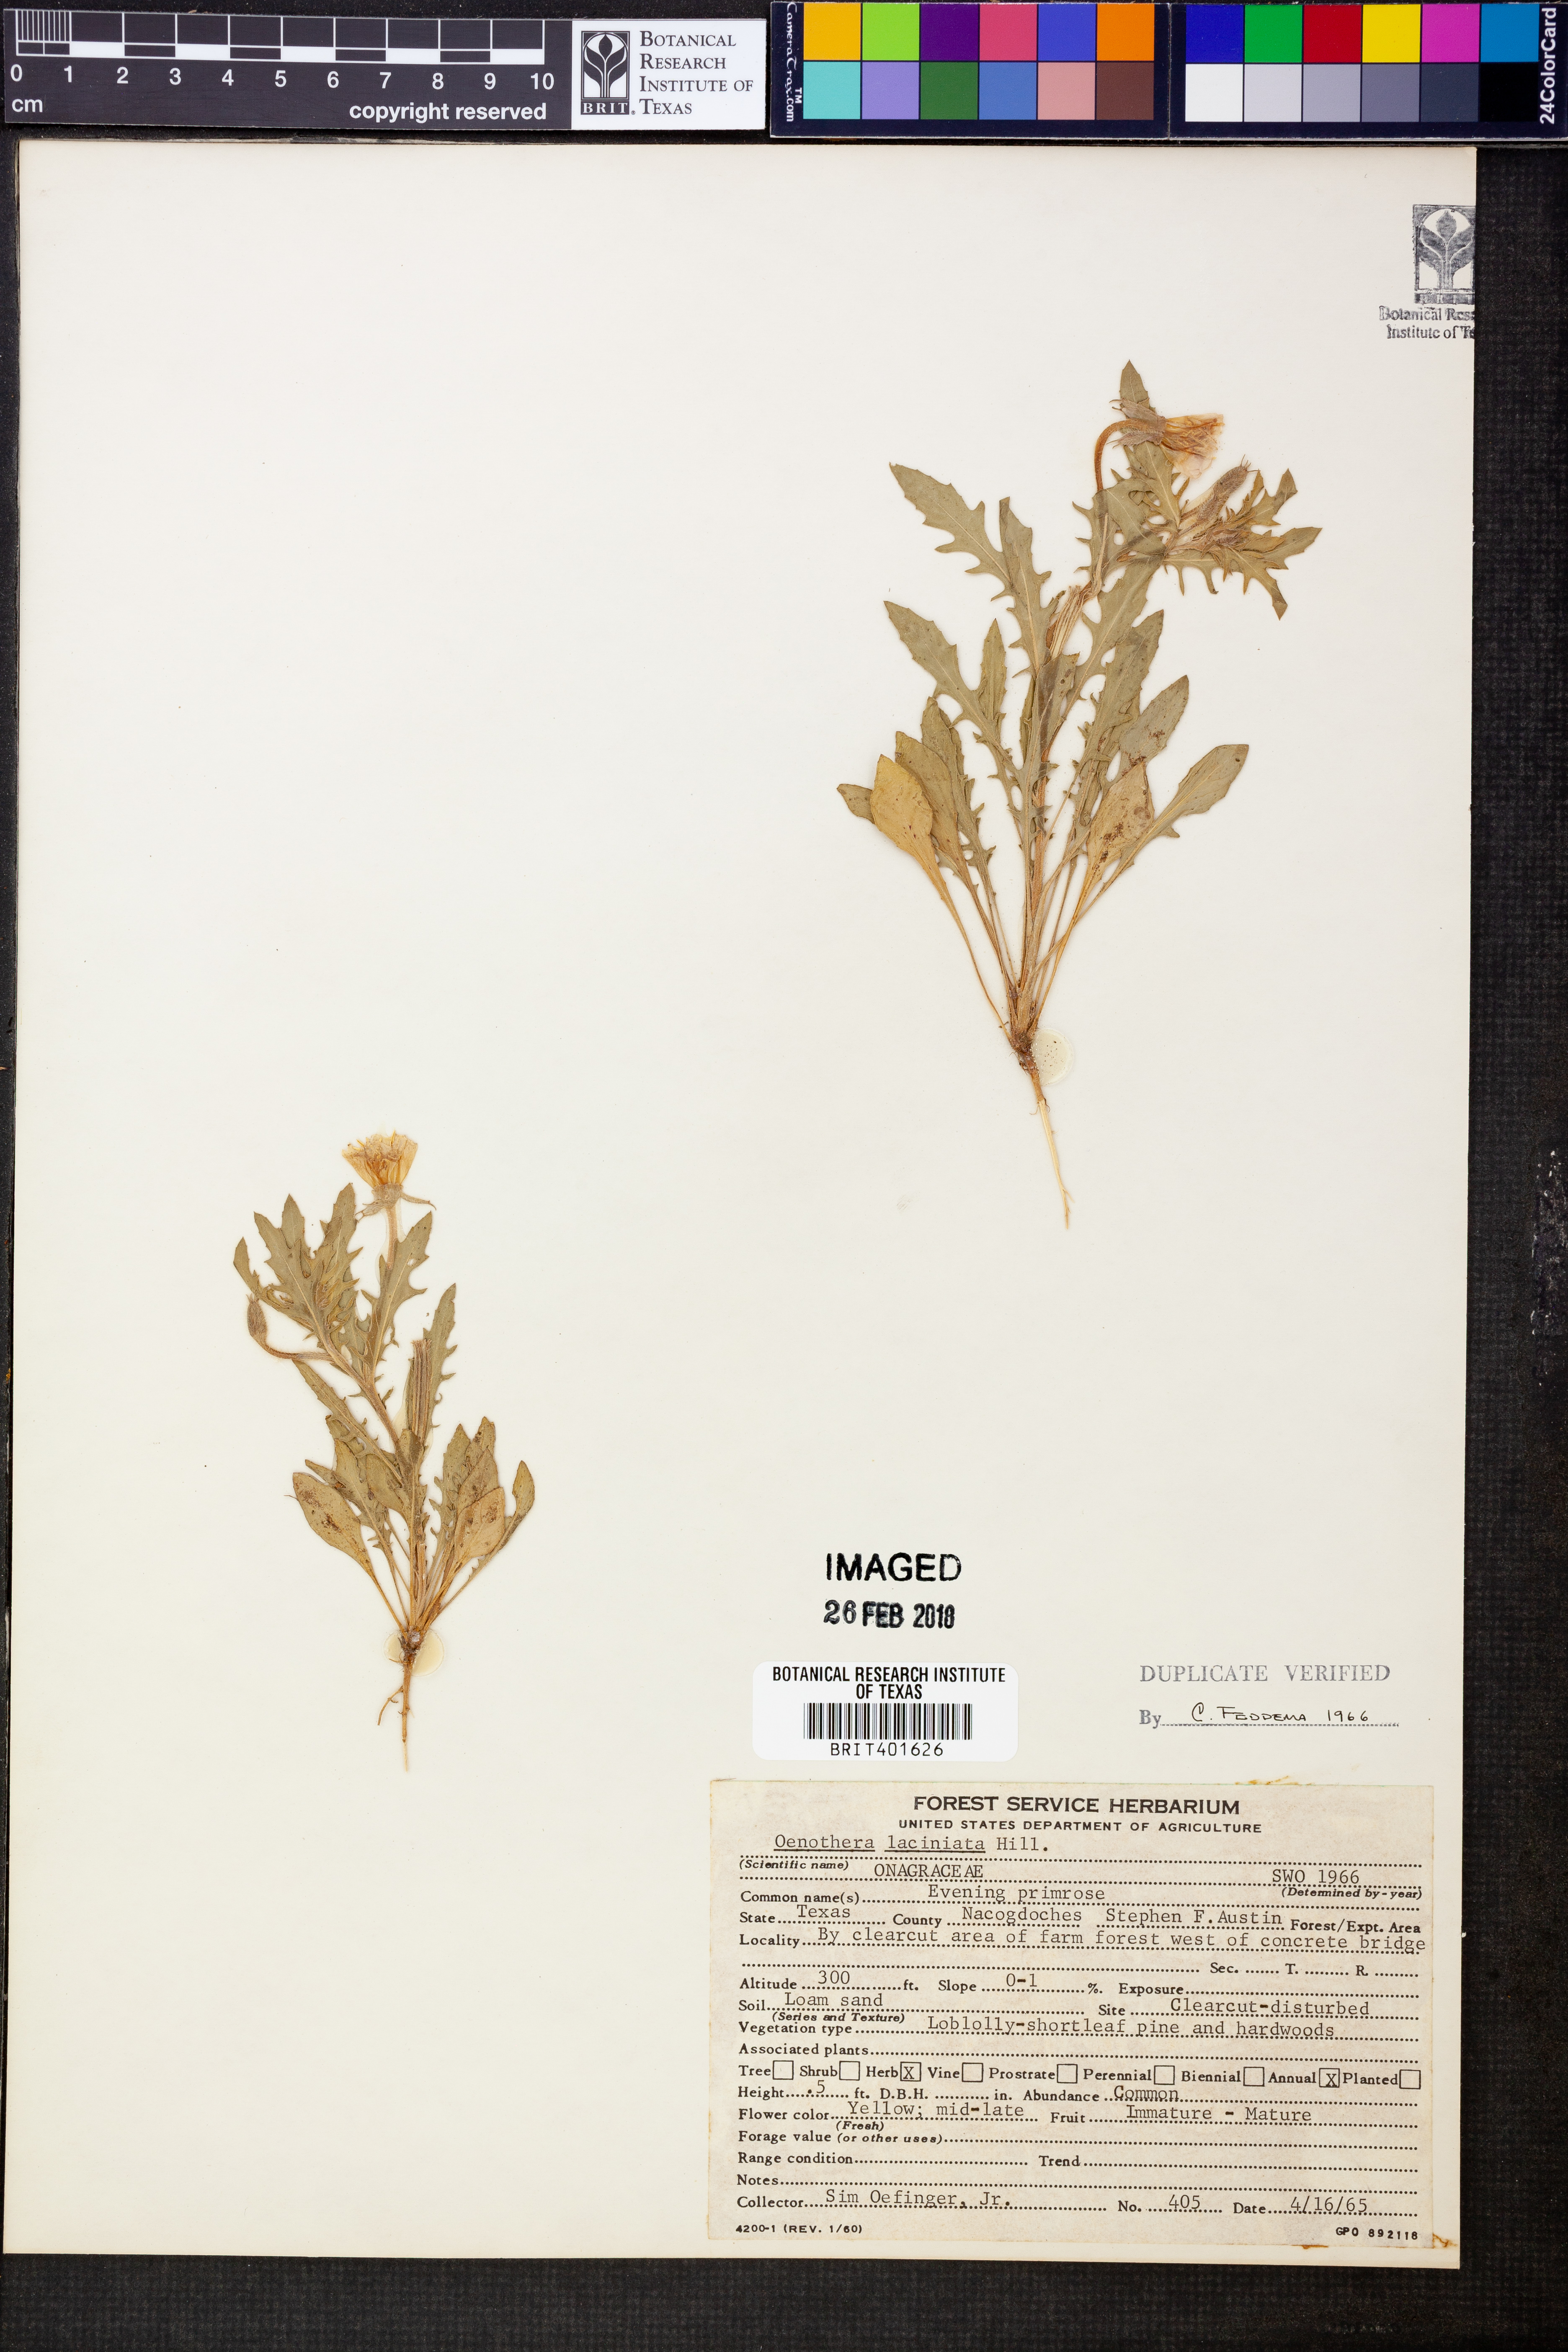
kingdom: Plantae
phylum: Tracheophyta
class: Magnoliopsida
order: Myrtales
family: Onagraceae
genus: Oenothera
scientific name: Oenothera laciniata
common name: Cut-leaved evening-primrose
